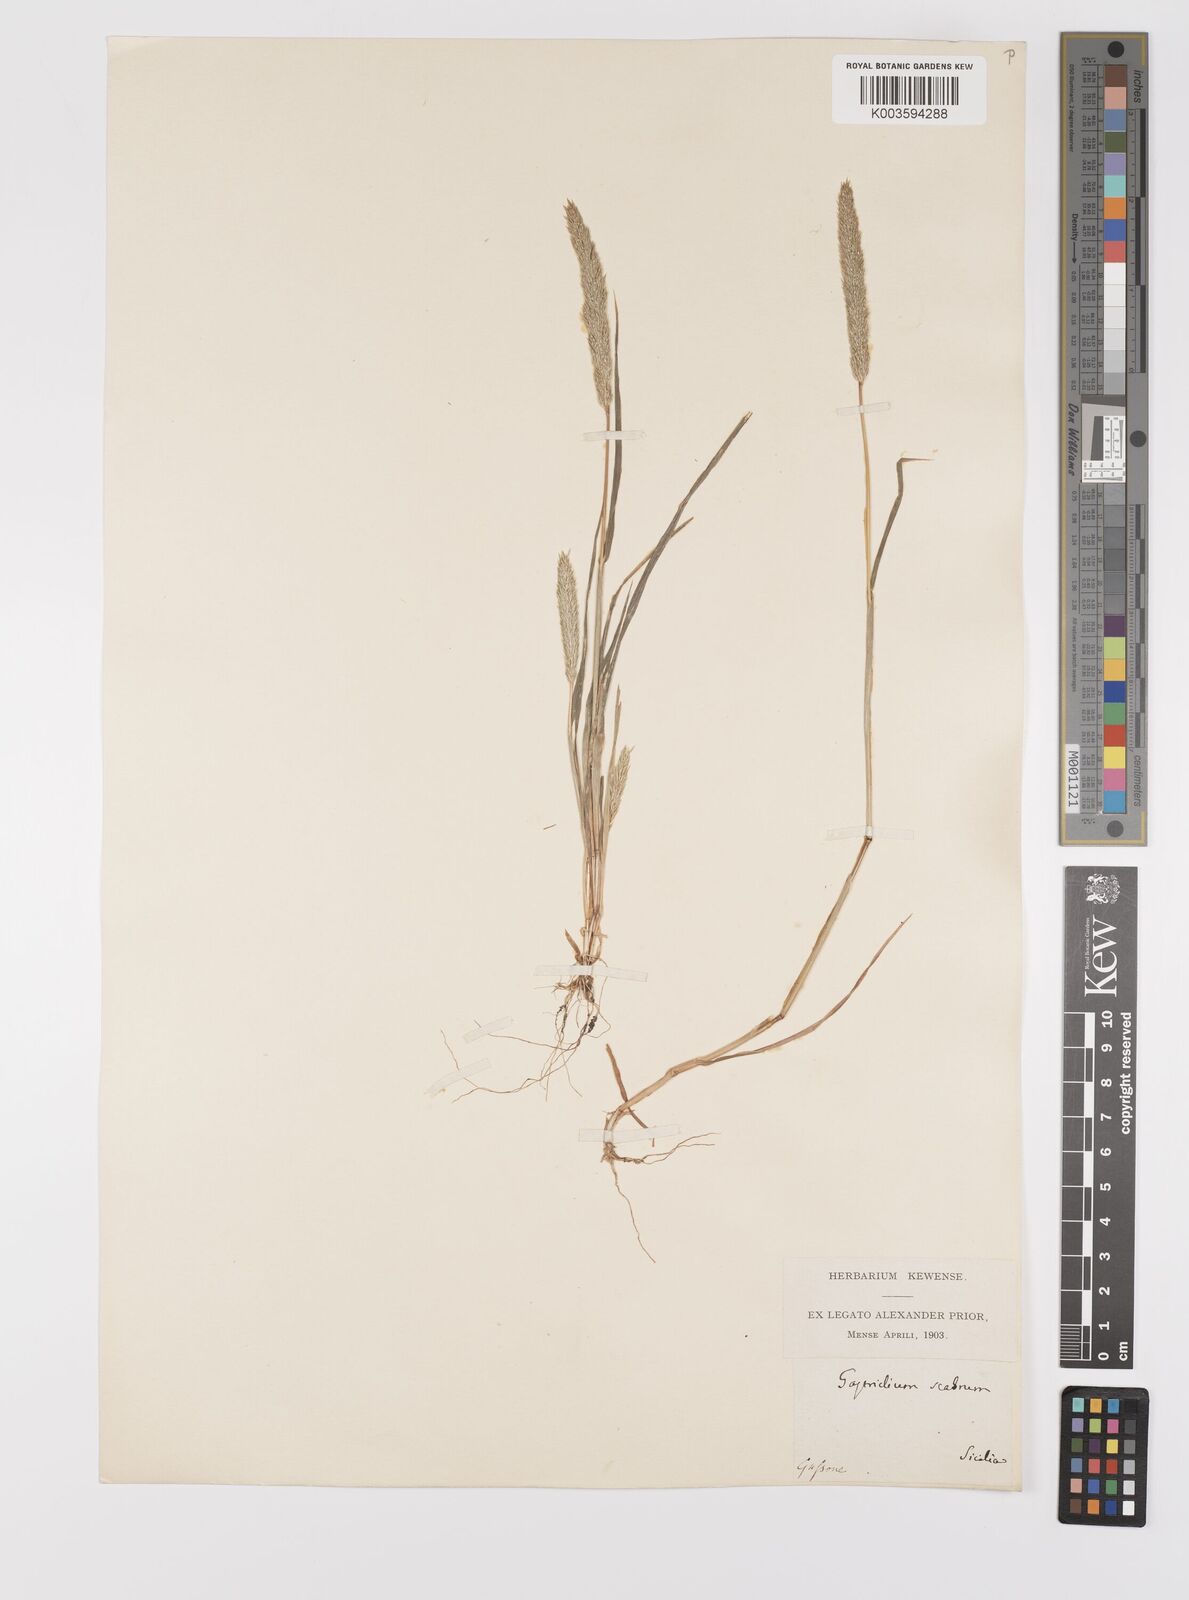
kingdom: Plantae
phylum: Tracheophyta
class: Liliopsida
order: Poales
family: Poaceae
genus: Gastridium
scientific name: Gastridium ventricosum
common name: Nit-grass
